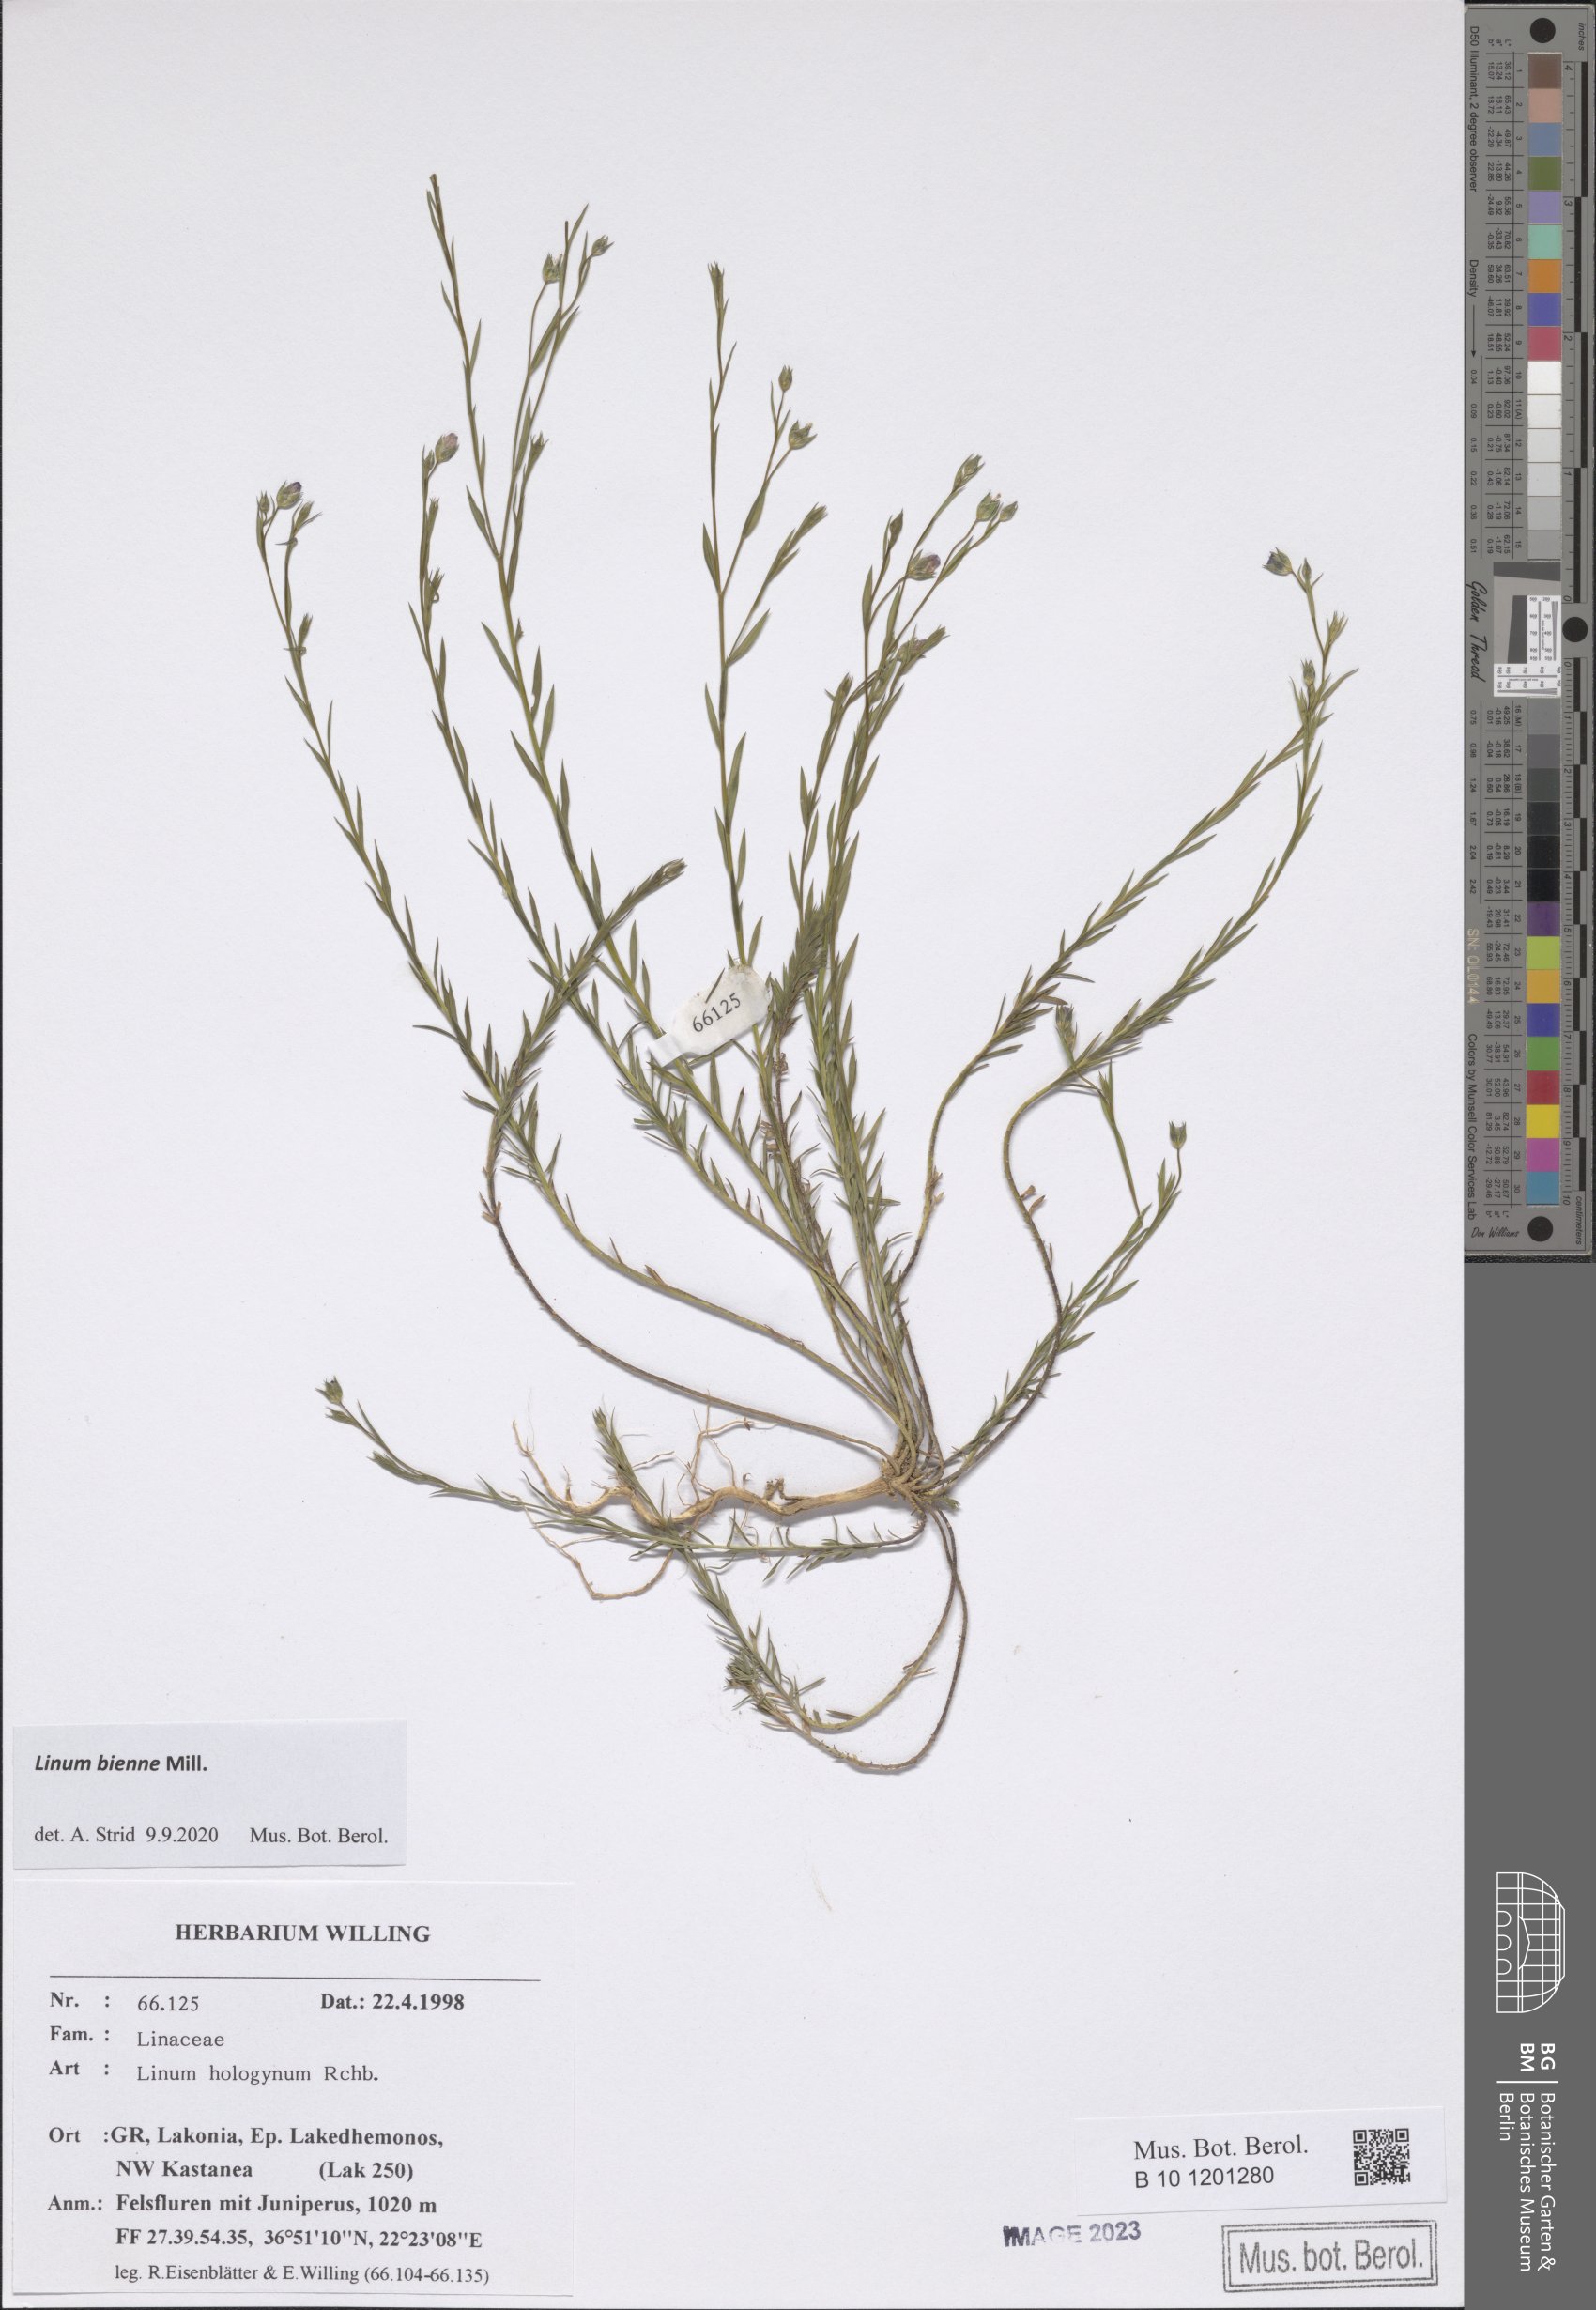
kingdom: Plantae
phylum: Tracheophyta
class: Magnoliopsida
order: Malpighiales
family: Linaceae
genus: Linum
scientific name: Linum bienne
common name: Pale flax
